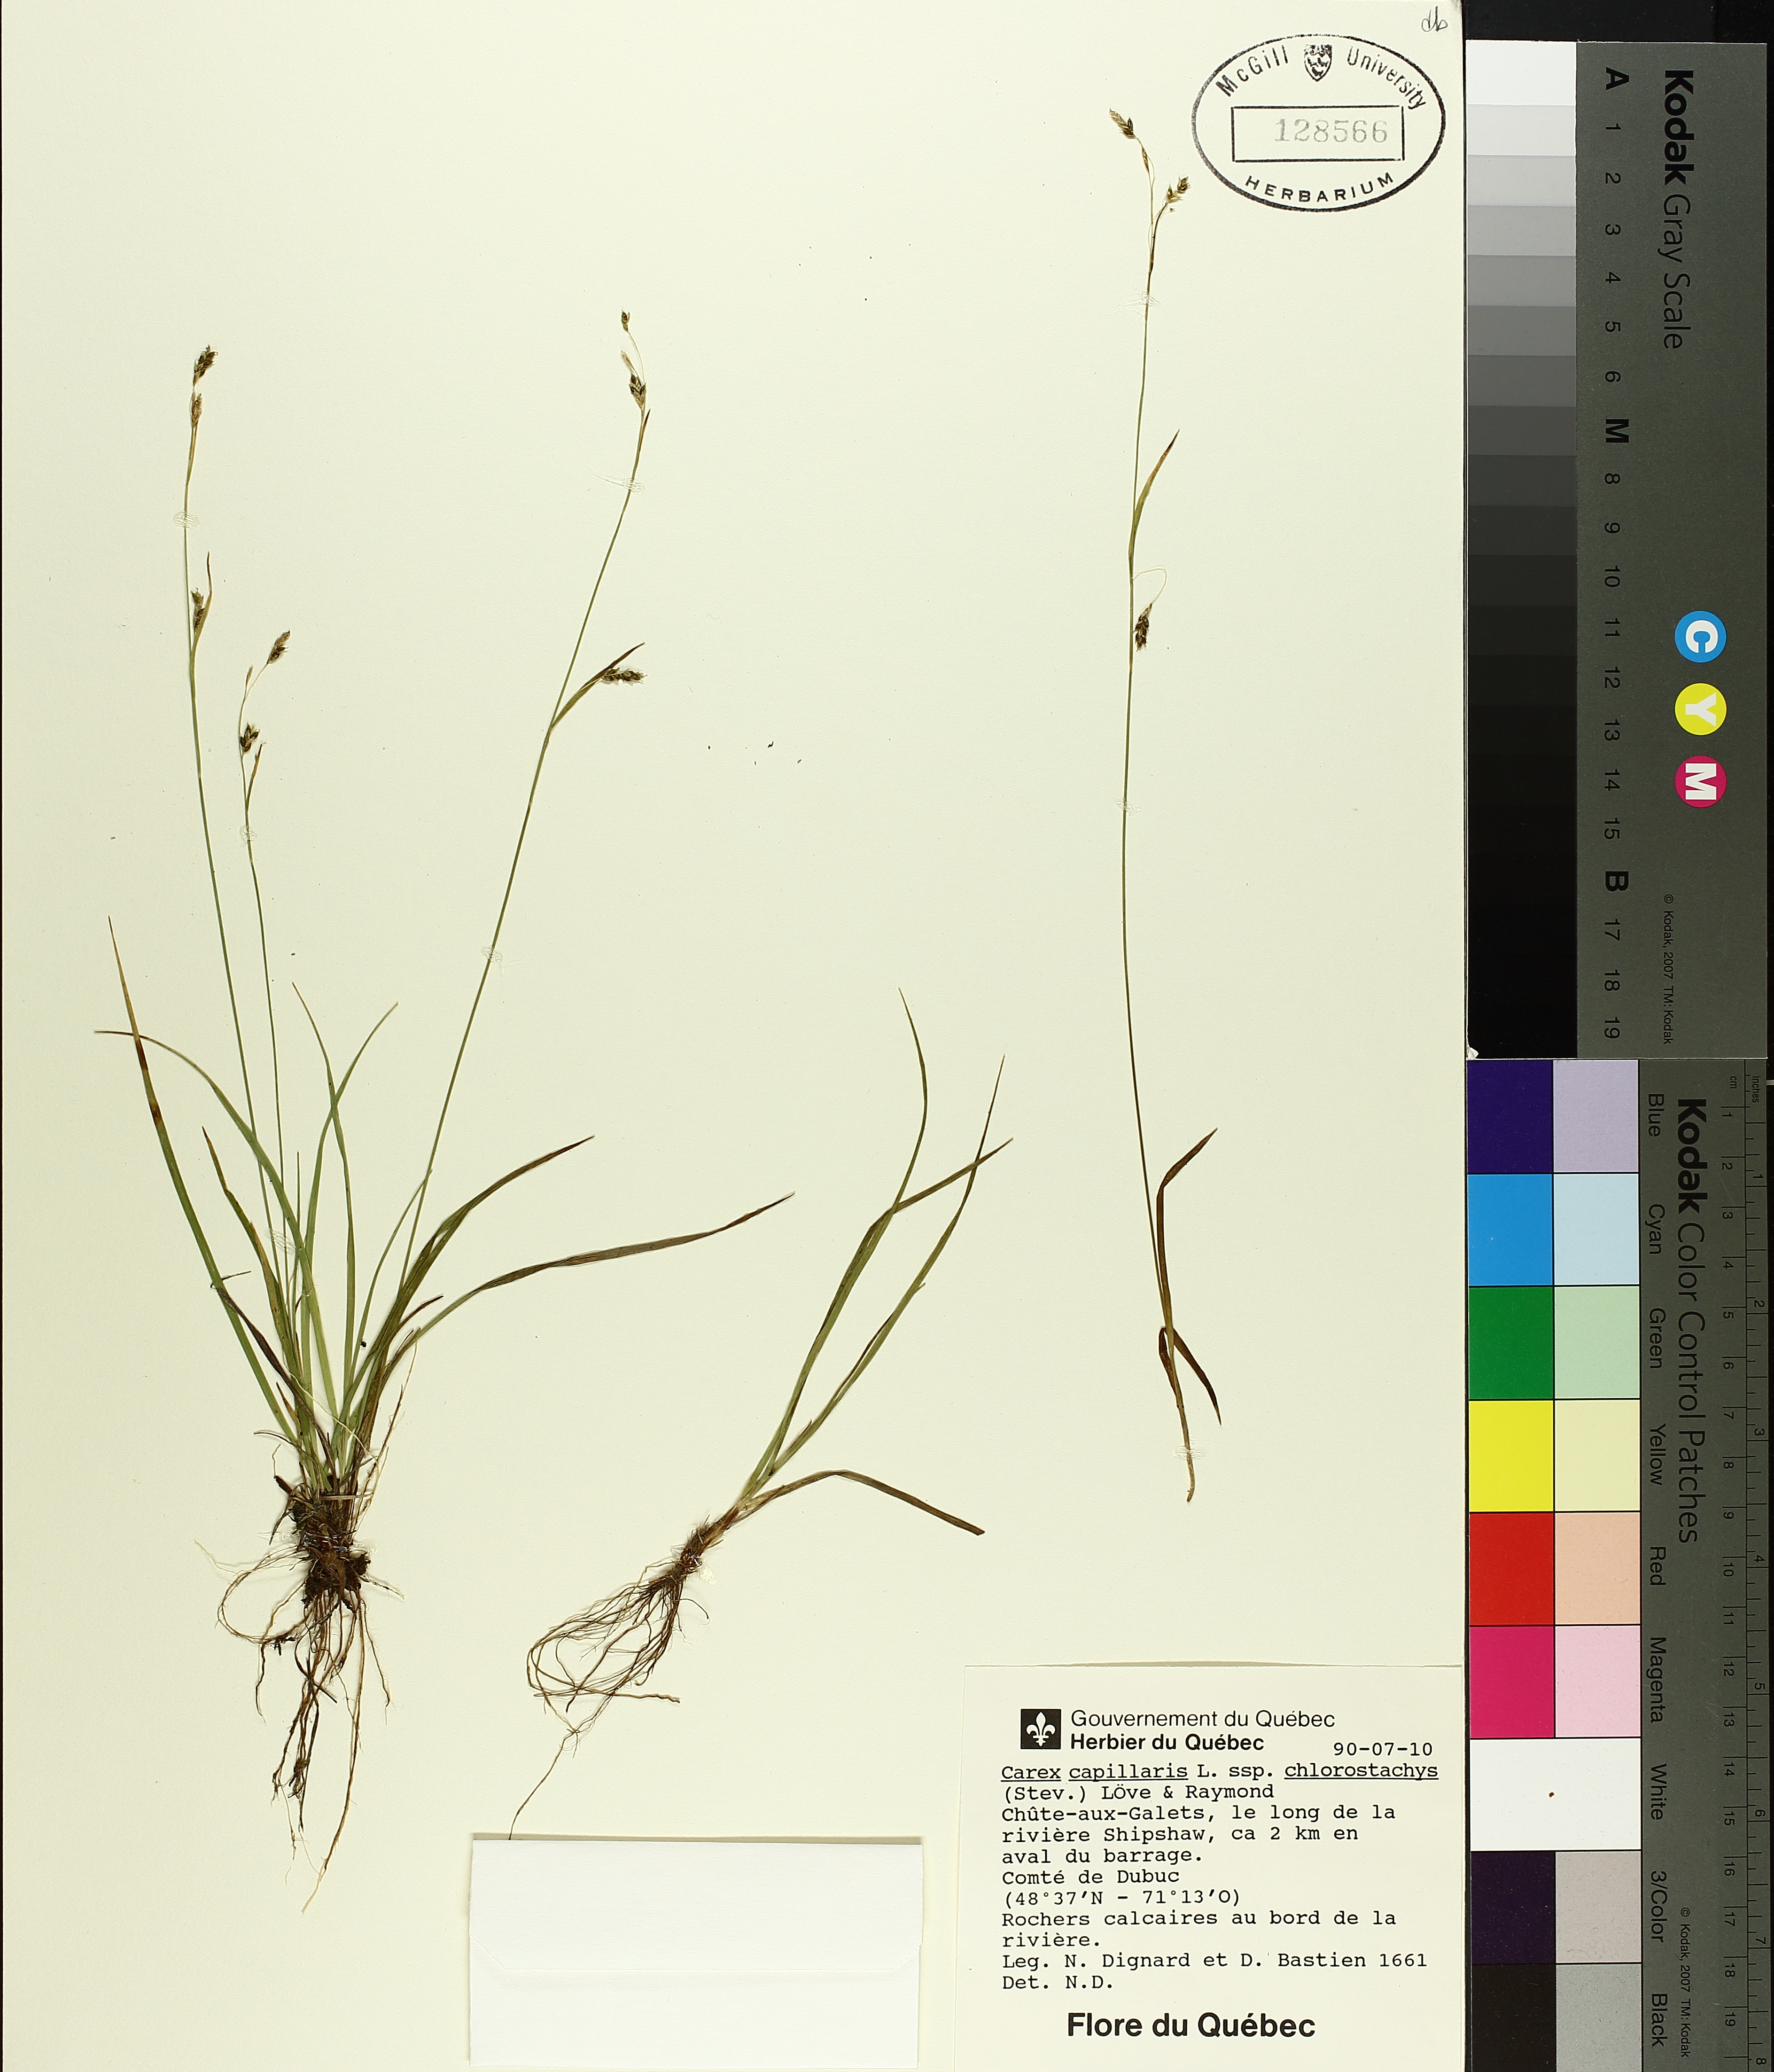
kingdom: Plantae
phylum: Tracheophyta
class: Liliopsida
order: Poales
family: Cyperaceae
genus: Carex
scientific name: Carex capillaris
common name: Hair sedge
